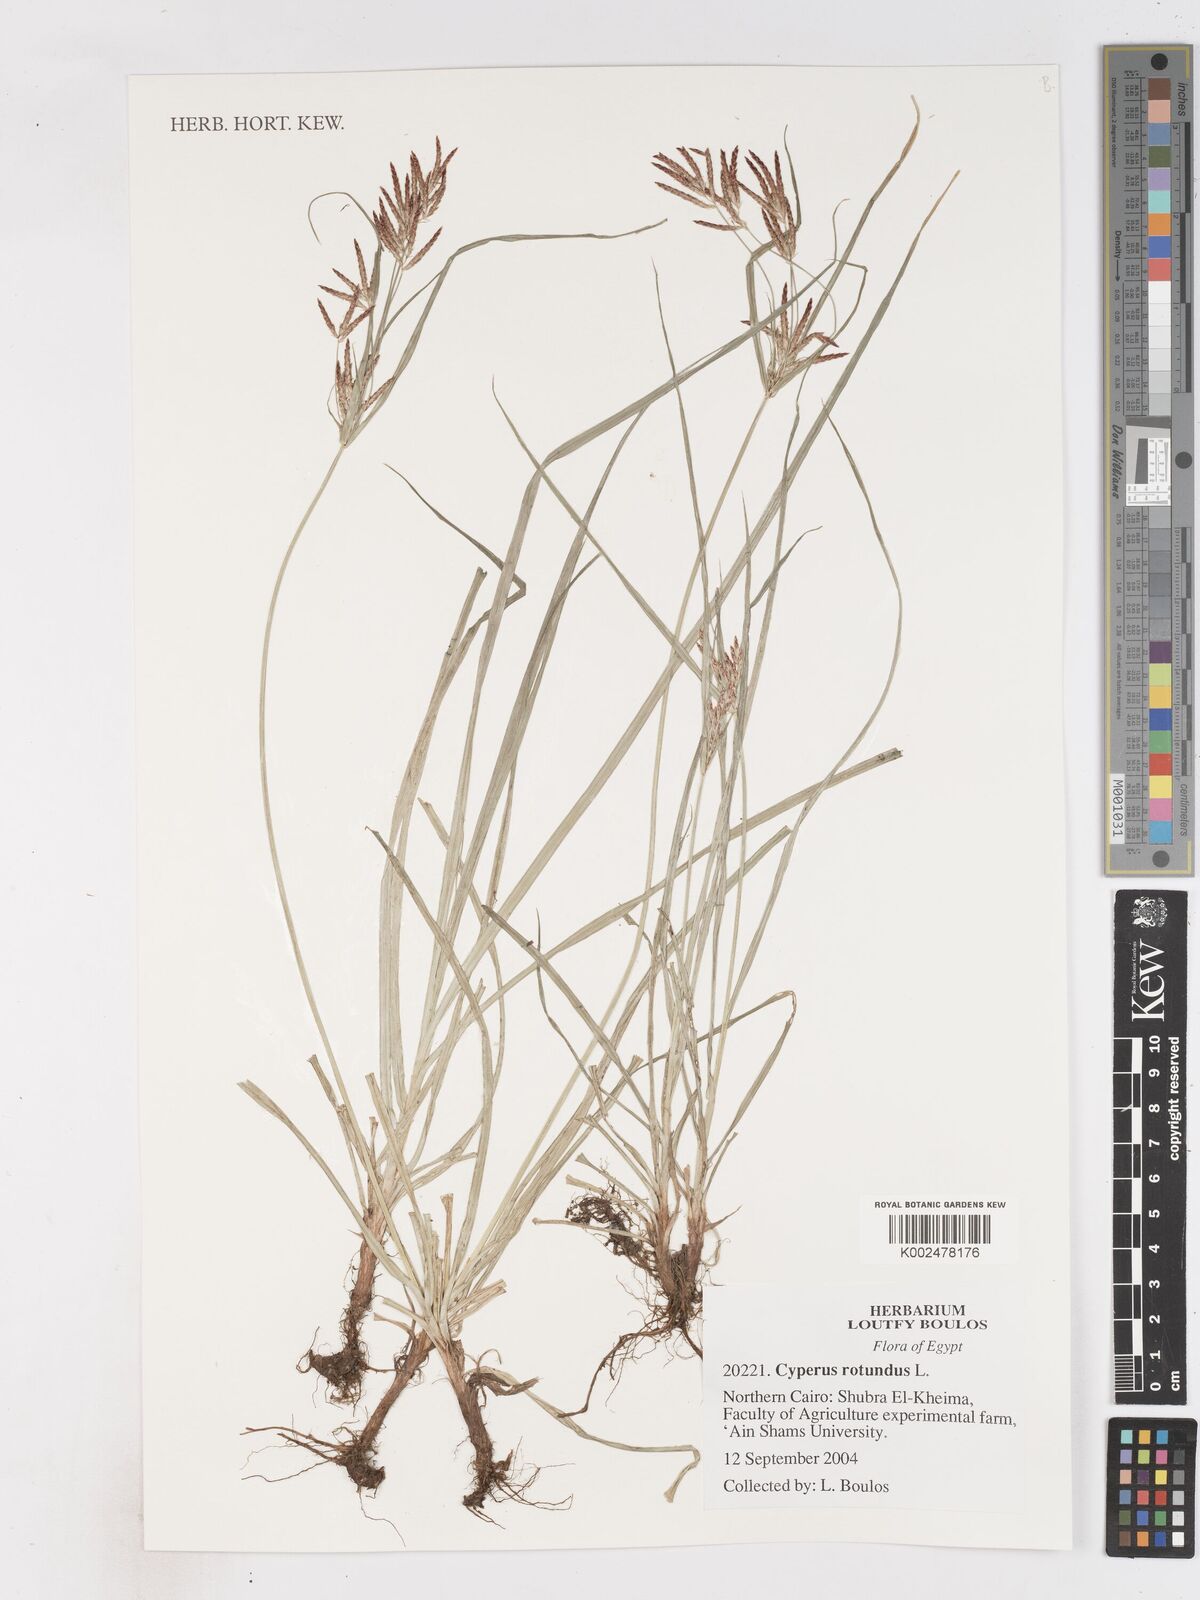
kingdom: Plantae
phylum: Tracheophyta
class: Liliopsida
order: Poales
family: Cyperaceae
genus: Cyperus
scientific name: Cyperus rotundus
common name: Nutgrass
